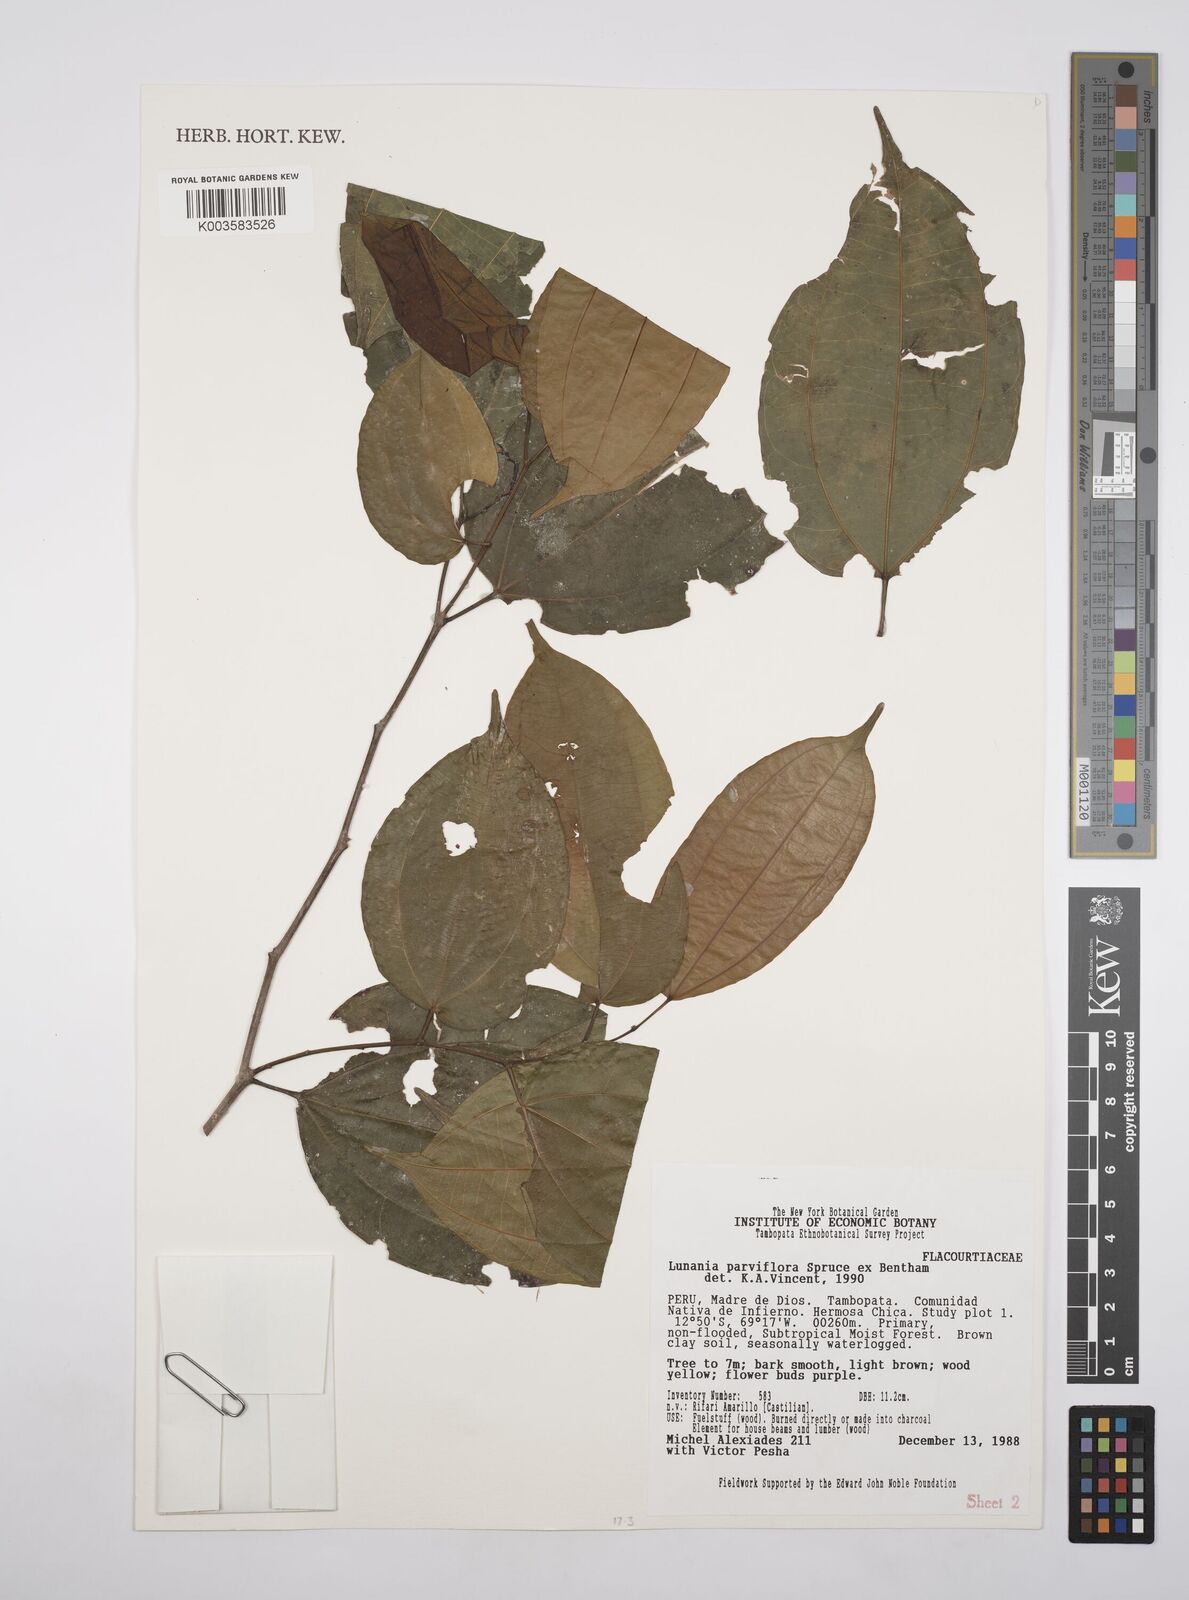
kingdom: Plantae
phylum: Tracheophyta
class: Magnoliopsida
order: Malpighiales
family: Salicaceae
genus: Lunania
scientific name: Lunania parviflora
